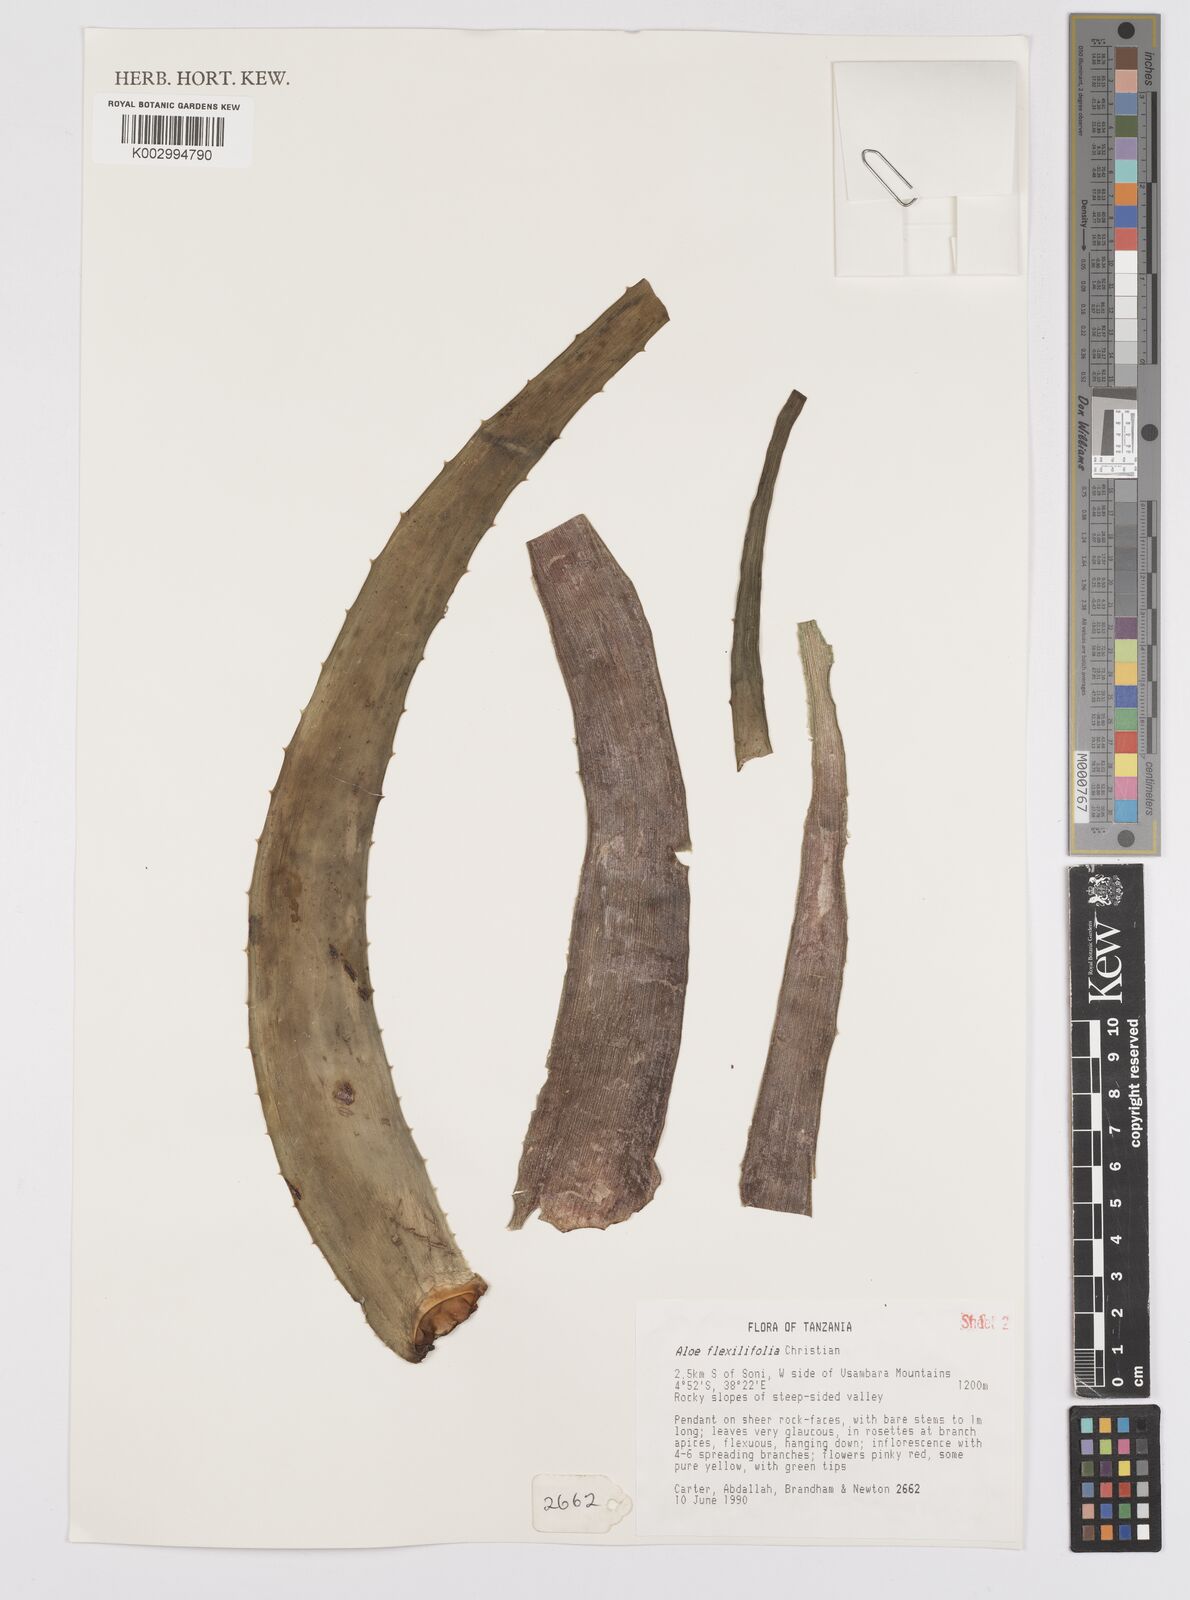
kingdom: Plantae
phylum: Tracheophyta
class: Liliopsida
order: Asparagales
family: Asphodelaceae
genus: Aloe
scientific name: Aloe flexilifolia
